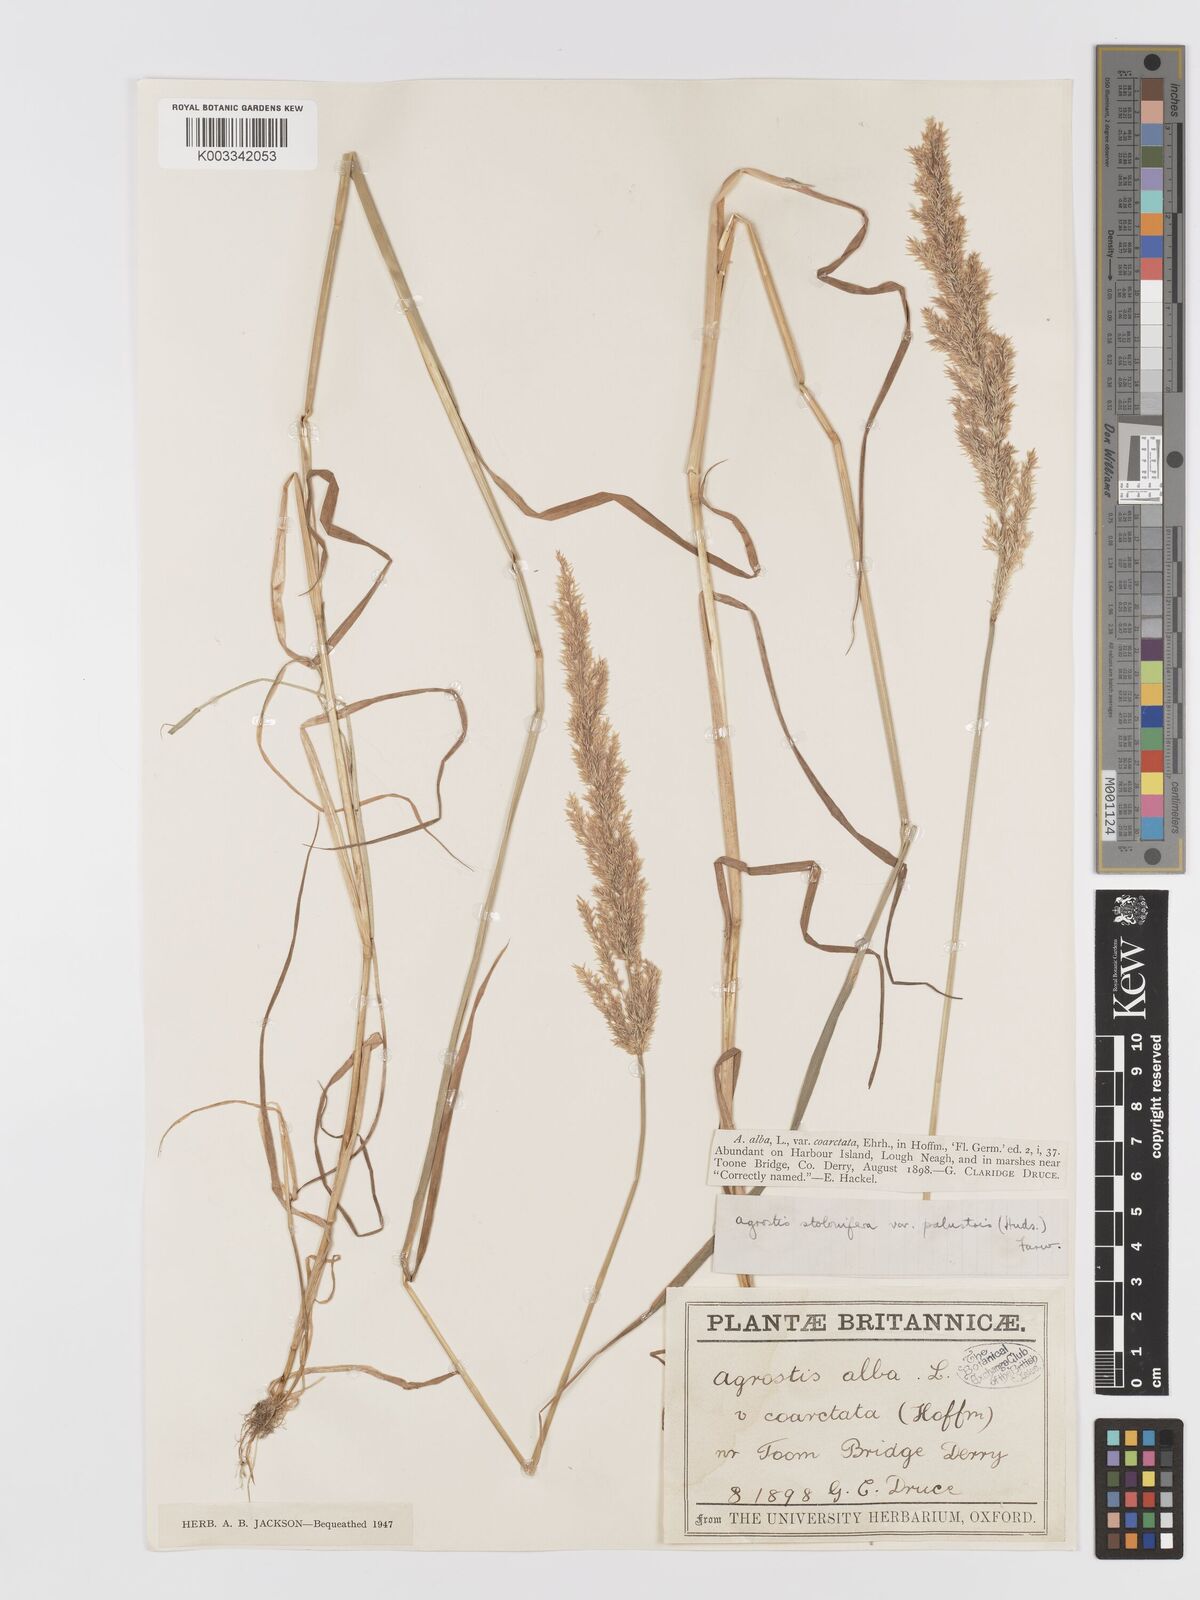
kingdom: Plantae
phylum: Tracheophyta
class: Liliopsida
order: Poales
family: Poaceae
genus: Agrostis
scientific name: Agrostis stolonifera
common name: Creeping bentgrass
